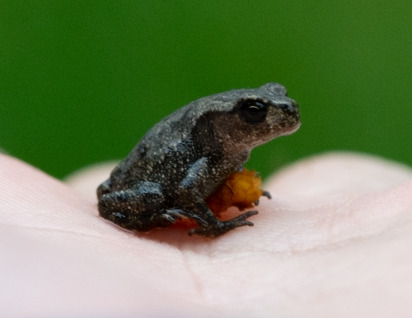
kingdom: Animalia
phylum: Chordata
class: Amphibia
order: Anura
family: Bufonidae
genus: Bufo
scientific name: Bufo bufo
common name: Skrubtudse
